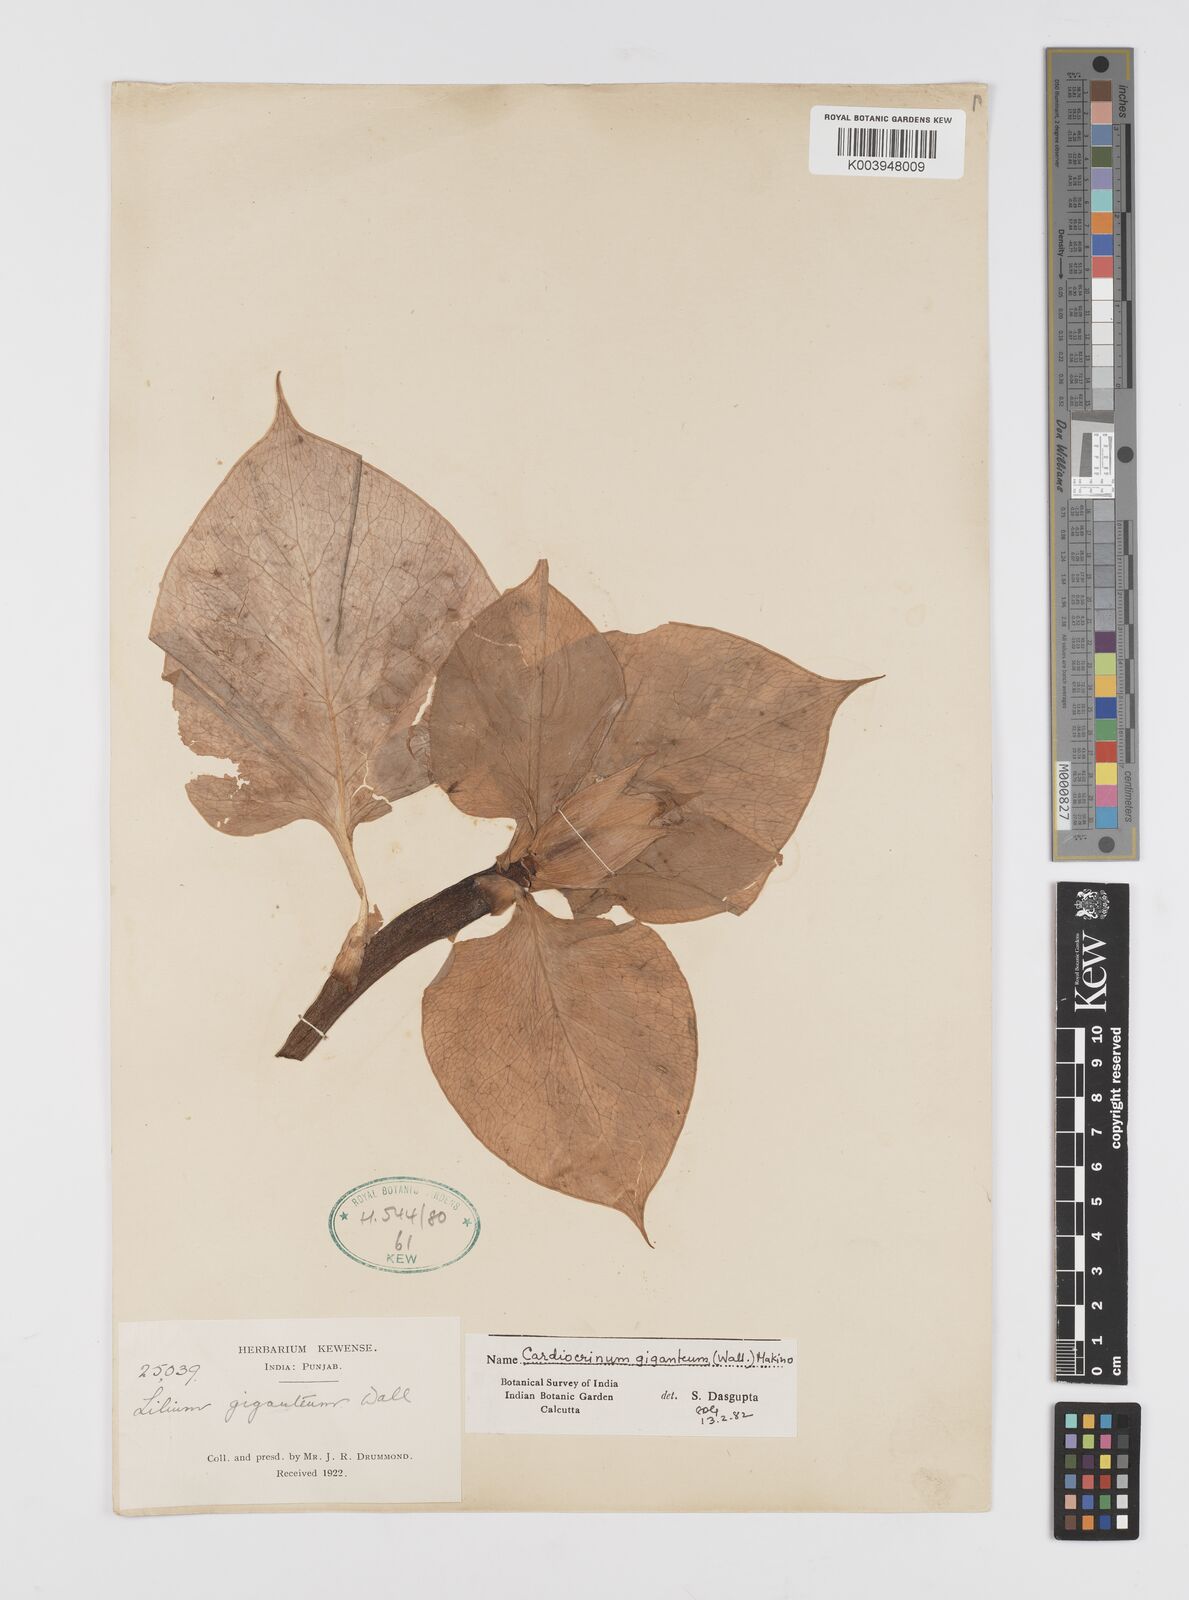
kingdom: Plantae
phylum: Tracheophyta
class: Liliopsida
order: Liliales
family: Liliaceae
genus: Cardiocrinum
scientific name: Cardiocrinum giganteum
